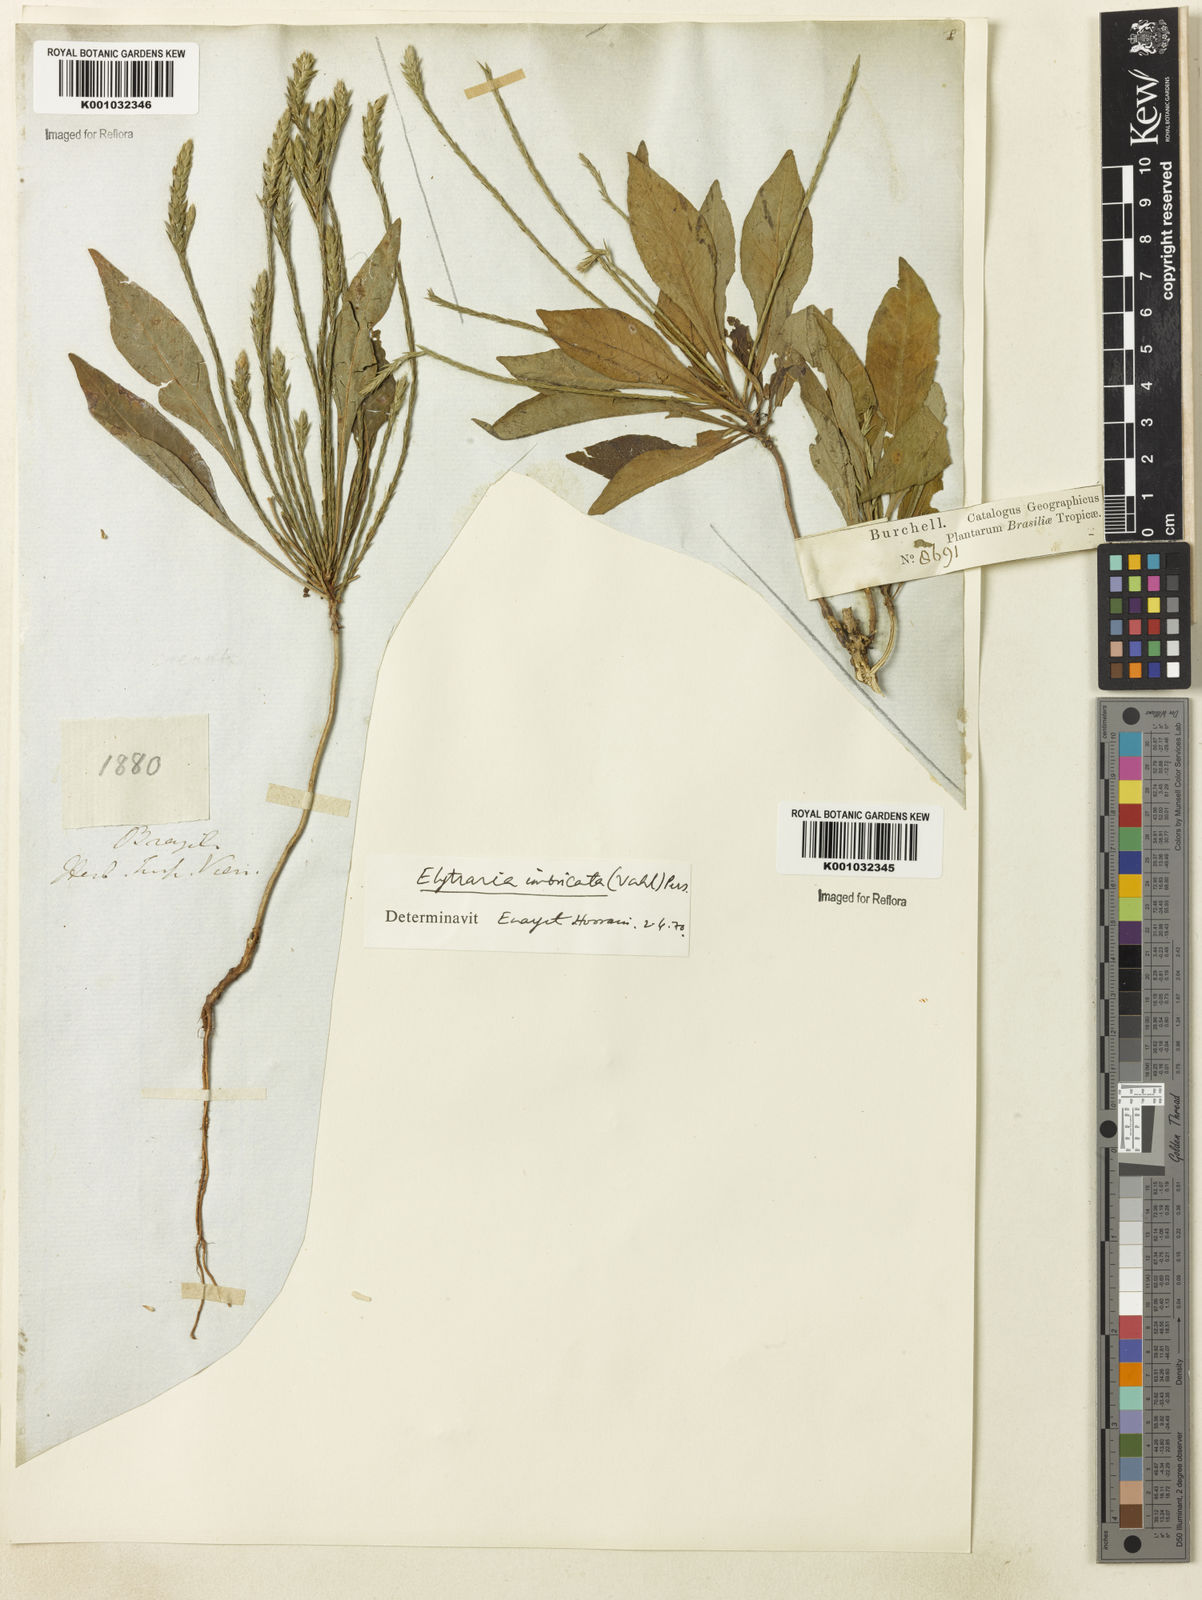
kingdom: Plantae
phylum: Tracheophyta
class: Magnoliopsida
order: Lamiales
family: Acanthaceae
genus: Elytraria
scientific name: Elytraria imbricata
